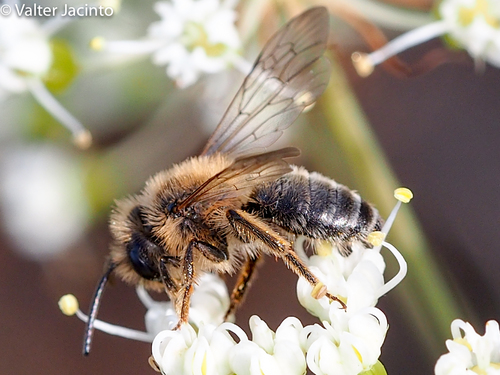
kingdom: Animalia
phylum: Arthropoda
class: Insecta
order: Hymenoptera
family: Andrenidae
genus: Andrena
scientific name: Andrena
